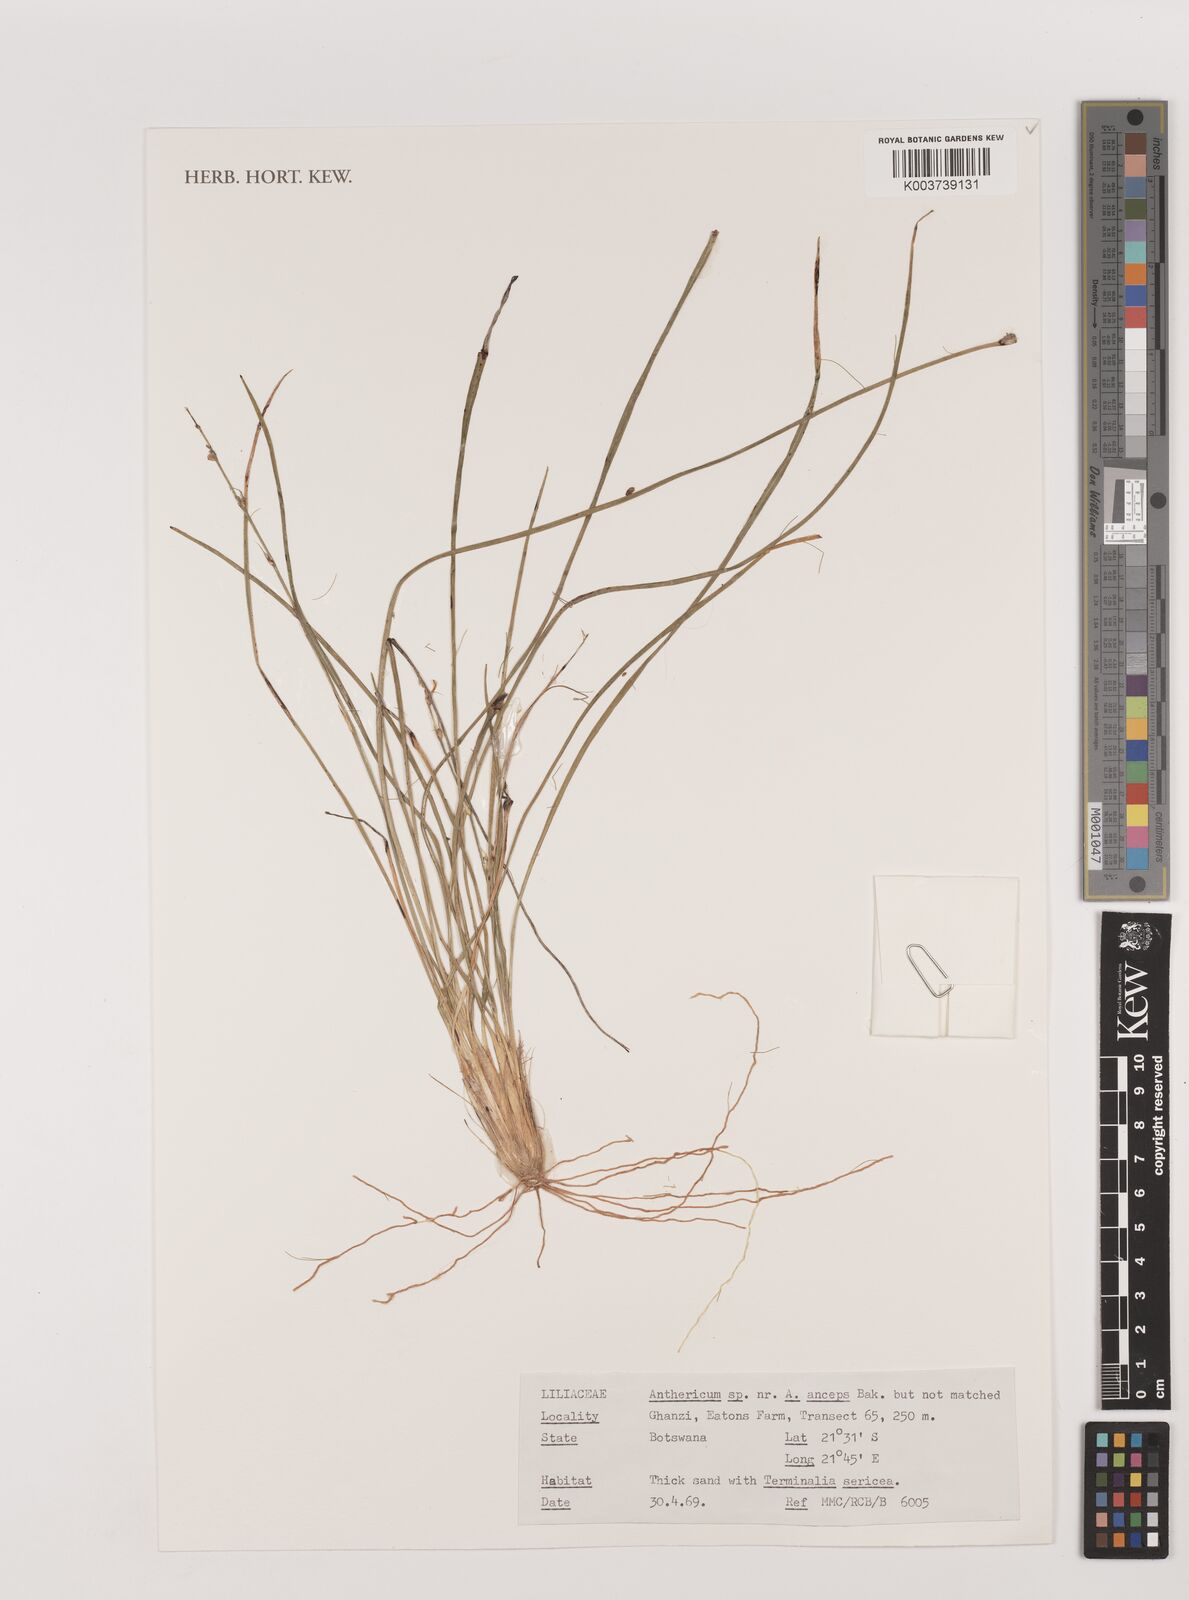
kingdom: Plantae
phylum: Tracheophyta
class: Liliopsida
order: Asparagales
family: Asparagaceae
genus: Chlorophytum
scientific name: Chlorophytum anceps
